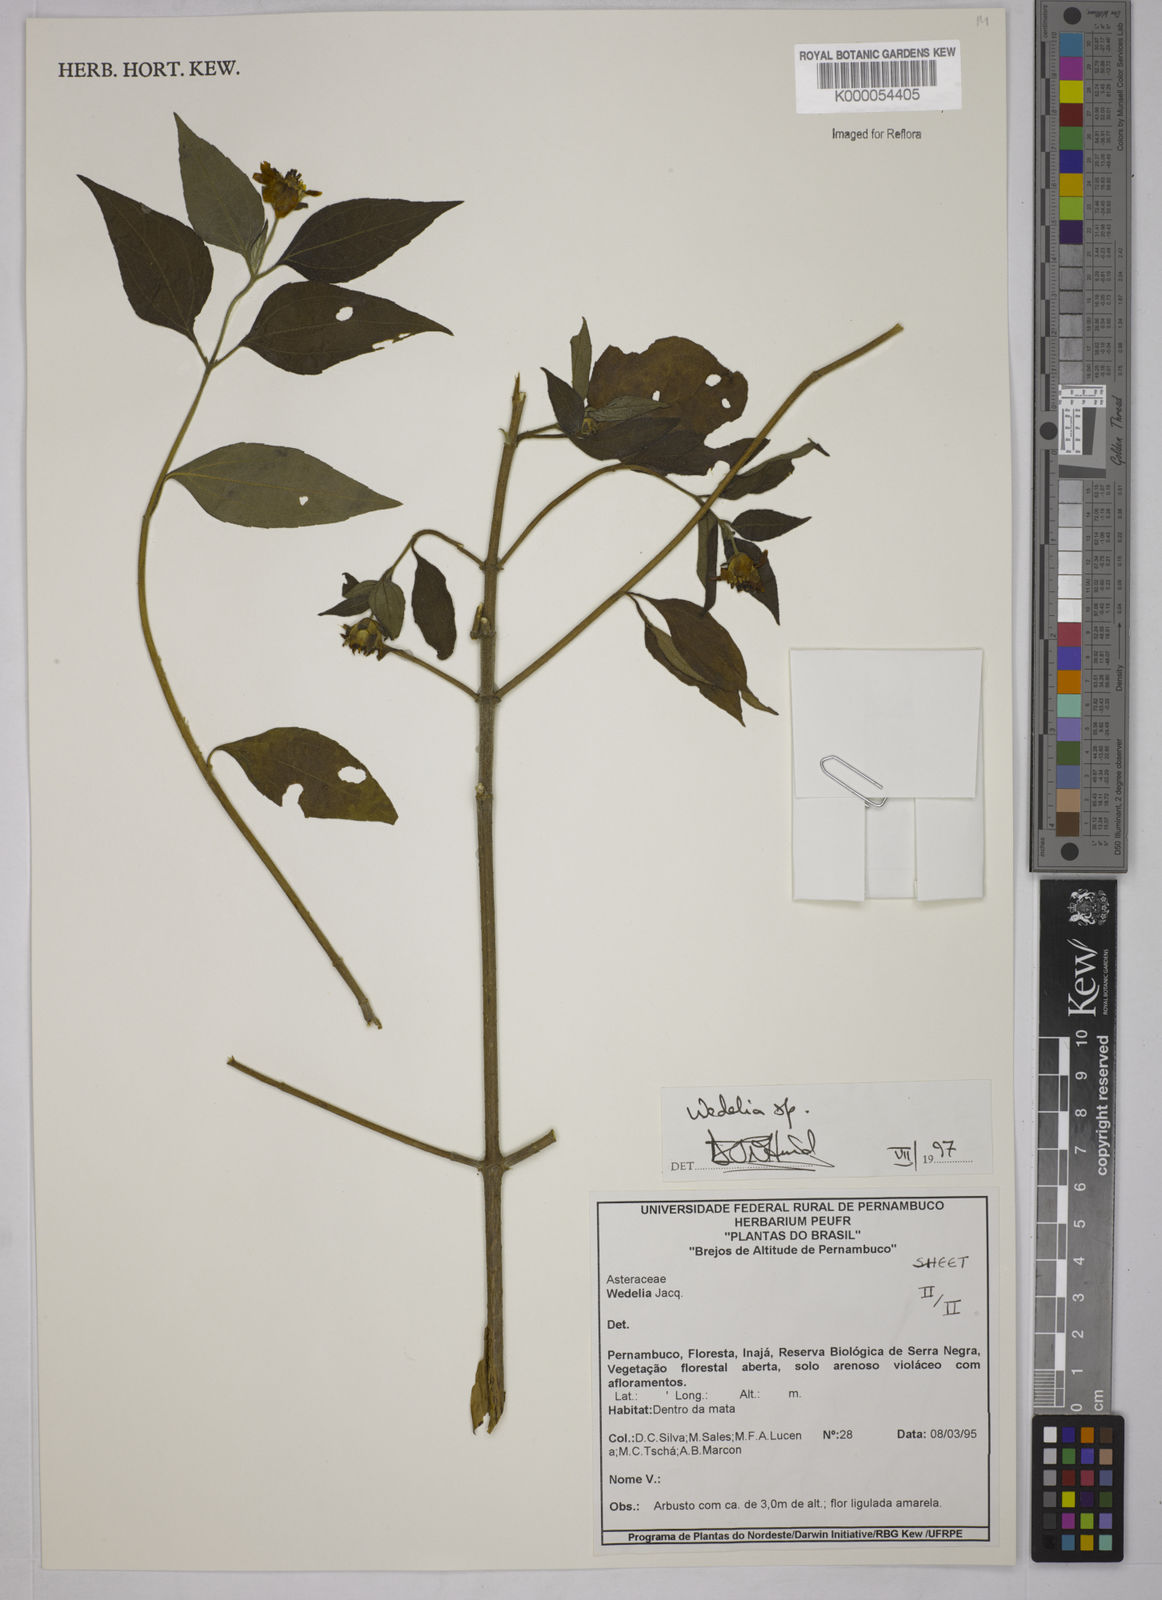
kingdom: Plantae
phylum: Tracheophyta
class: Magnoliopsida
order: Asterales
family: Asteraceae
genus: Wedelia
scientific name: Wedelia
